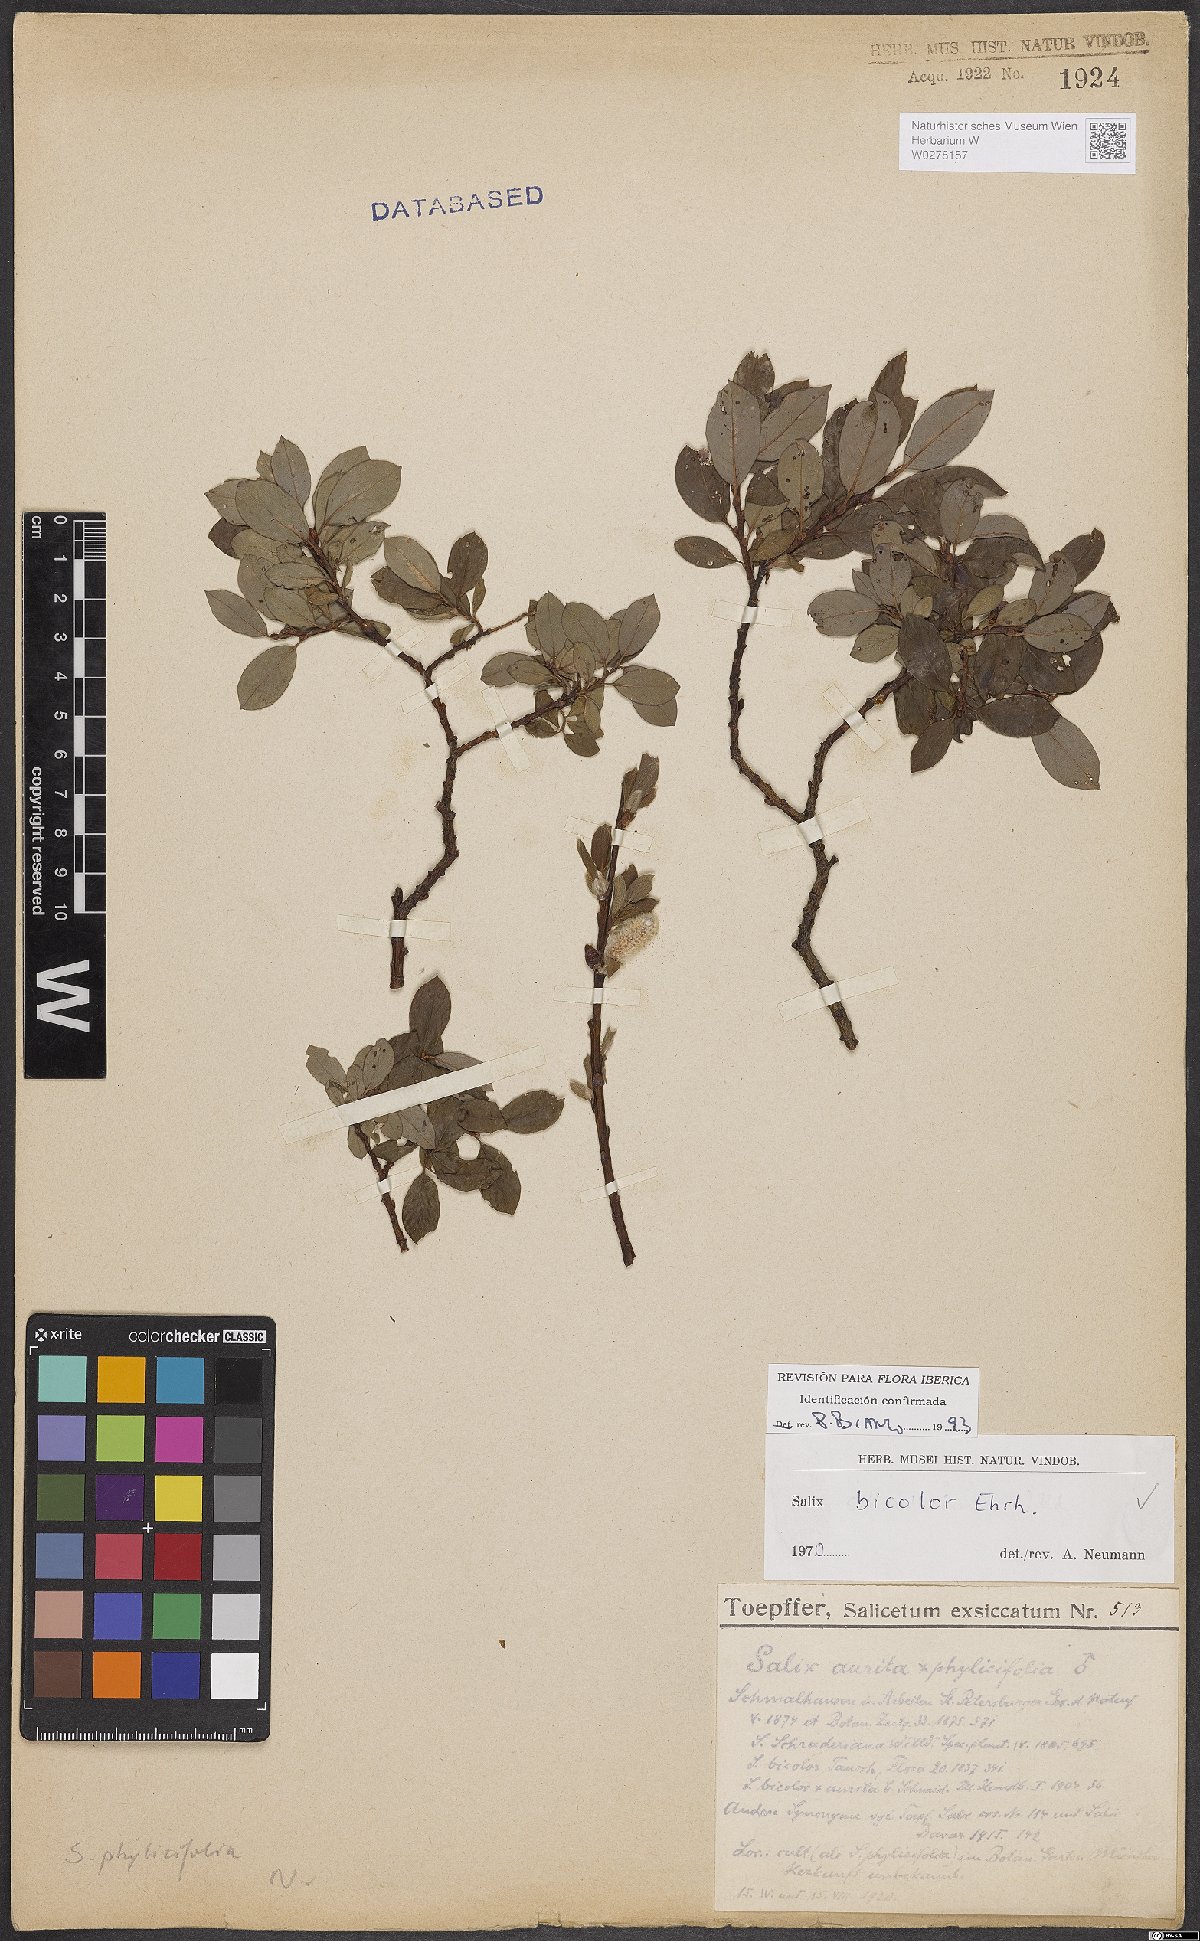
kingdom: Plantae
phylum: Tracheophyta
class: Magnoliopsida
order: Malpighiales
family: Salicaceae
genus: Salix
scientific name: Salix bicolor
